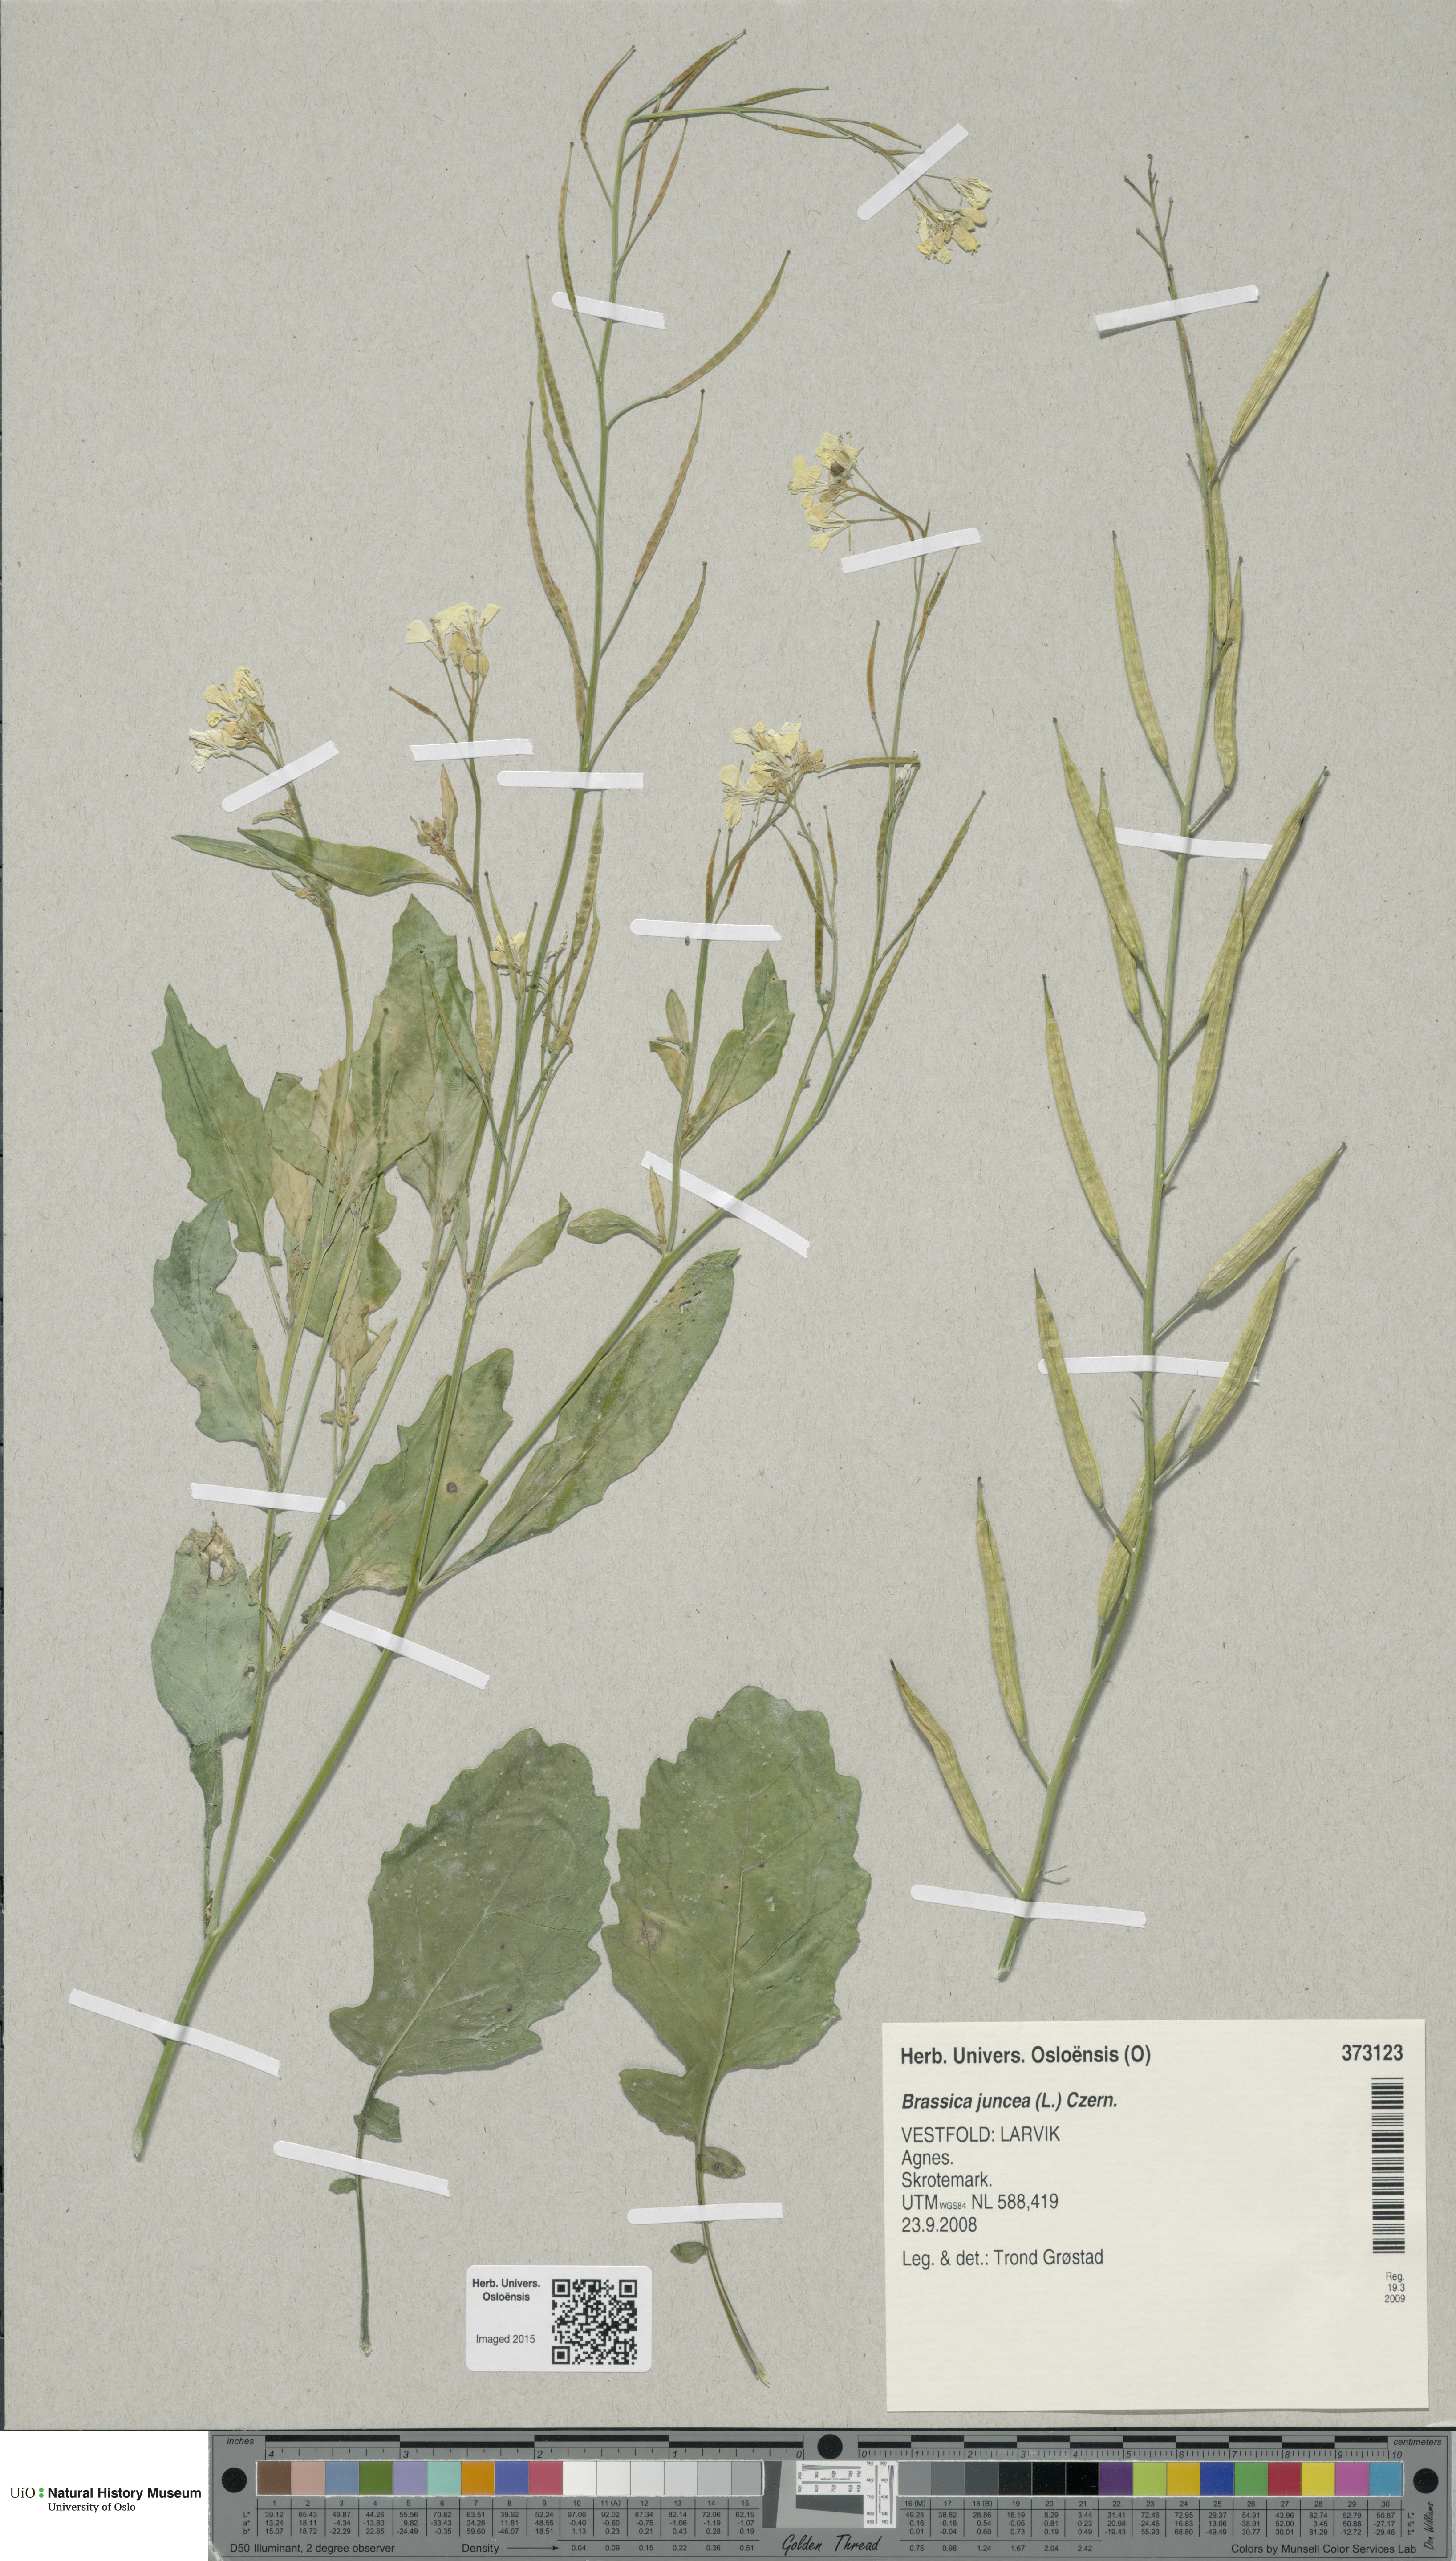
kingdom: Plantae
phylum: Tracheophyta
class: Magnoliopsida
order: Brassicales
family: Brassicaceae
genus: Brassica
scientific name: Brassica juncea
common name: Brown mustard
